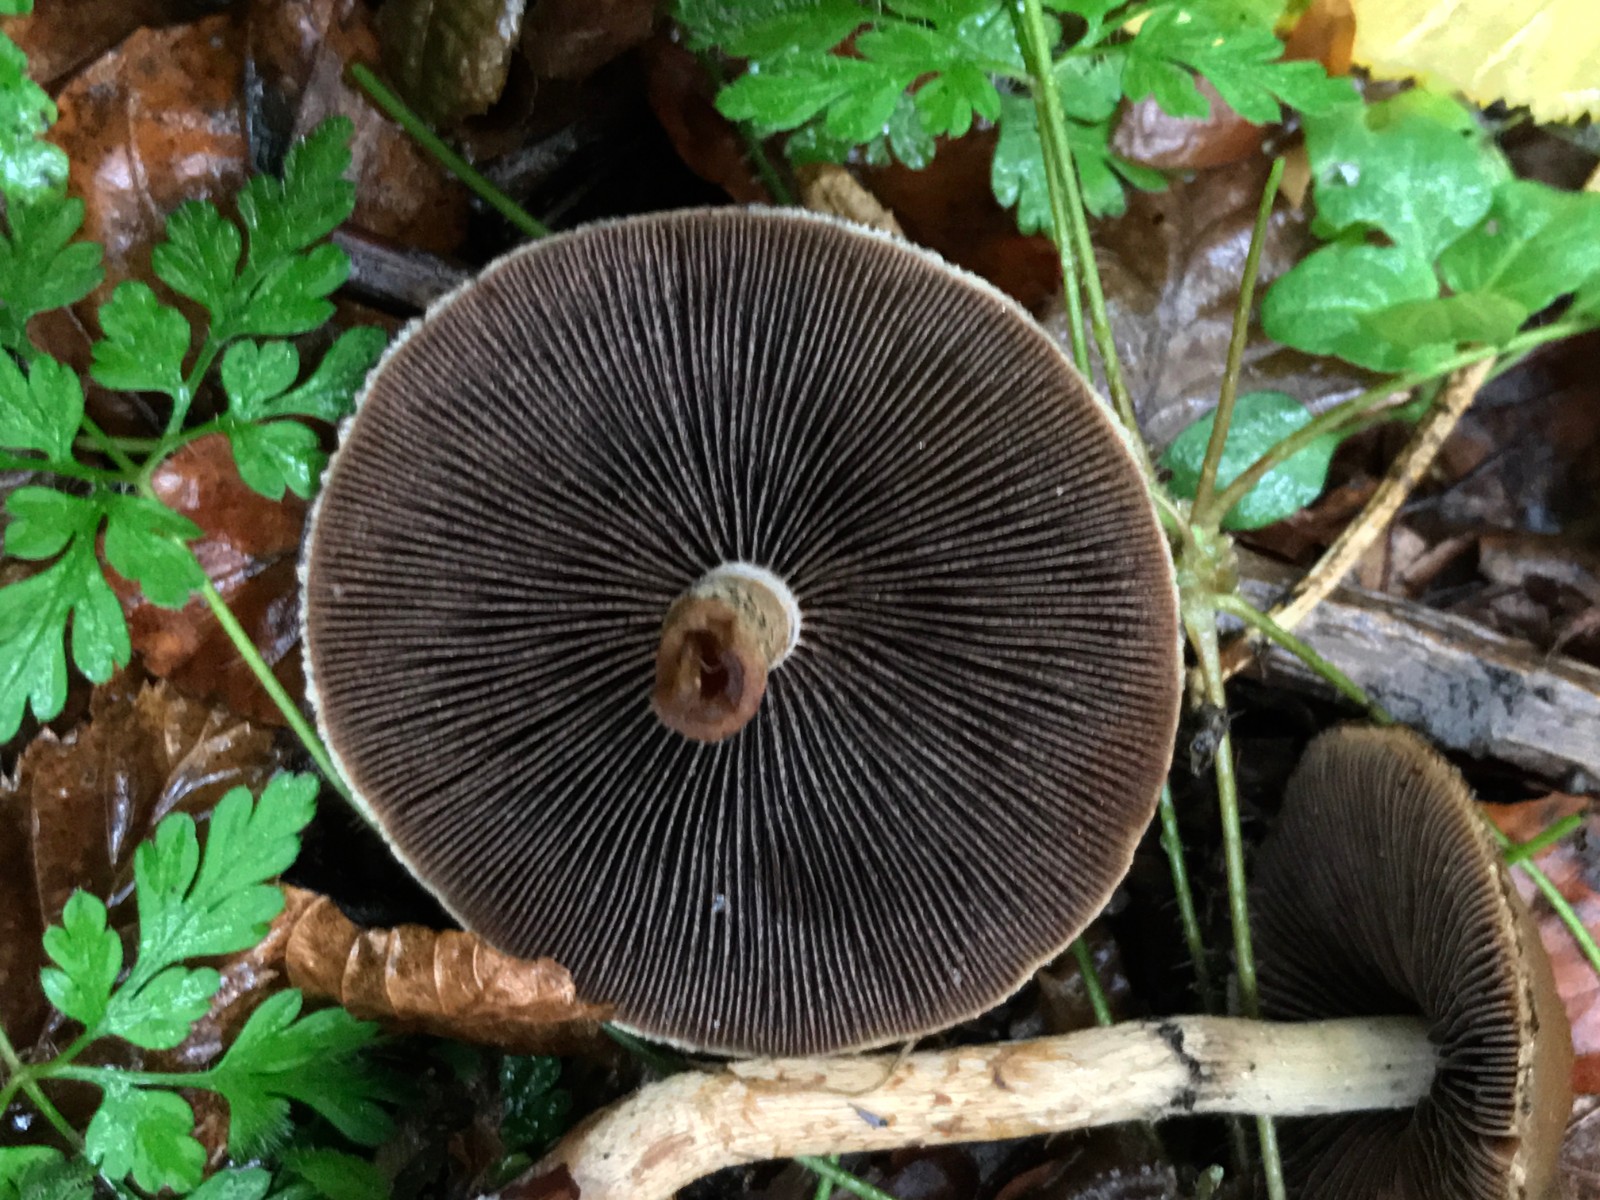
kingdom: Fungi
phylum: Basidiomycota
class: Agaricomycetes
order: Agaricales
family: Psathyrellaceae
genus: Lacrymaria
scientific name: Lacrymaria lacrymabunda
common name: grædende mørkhat
